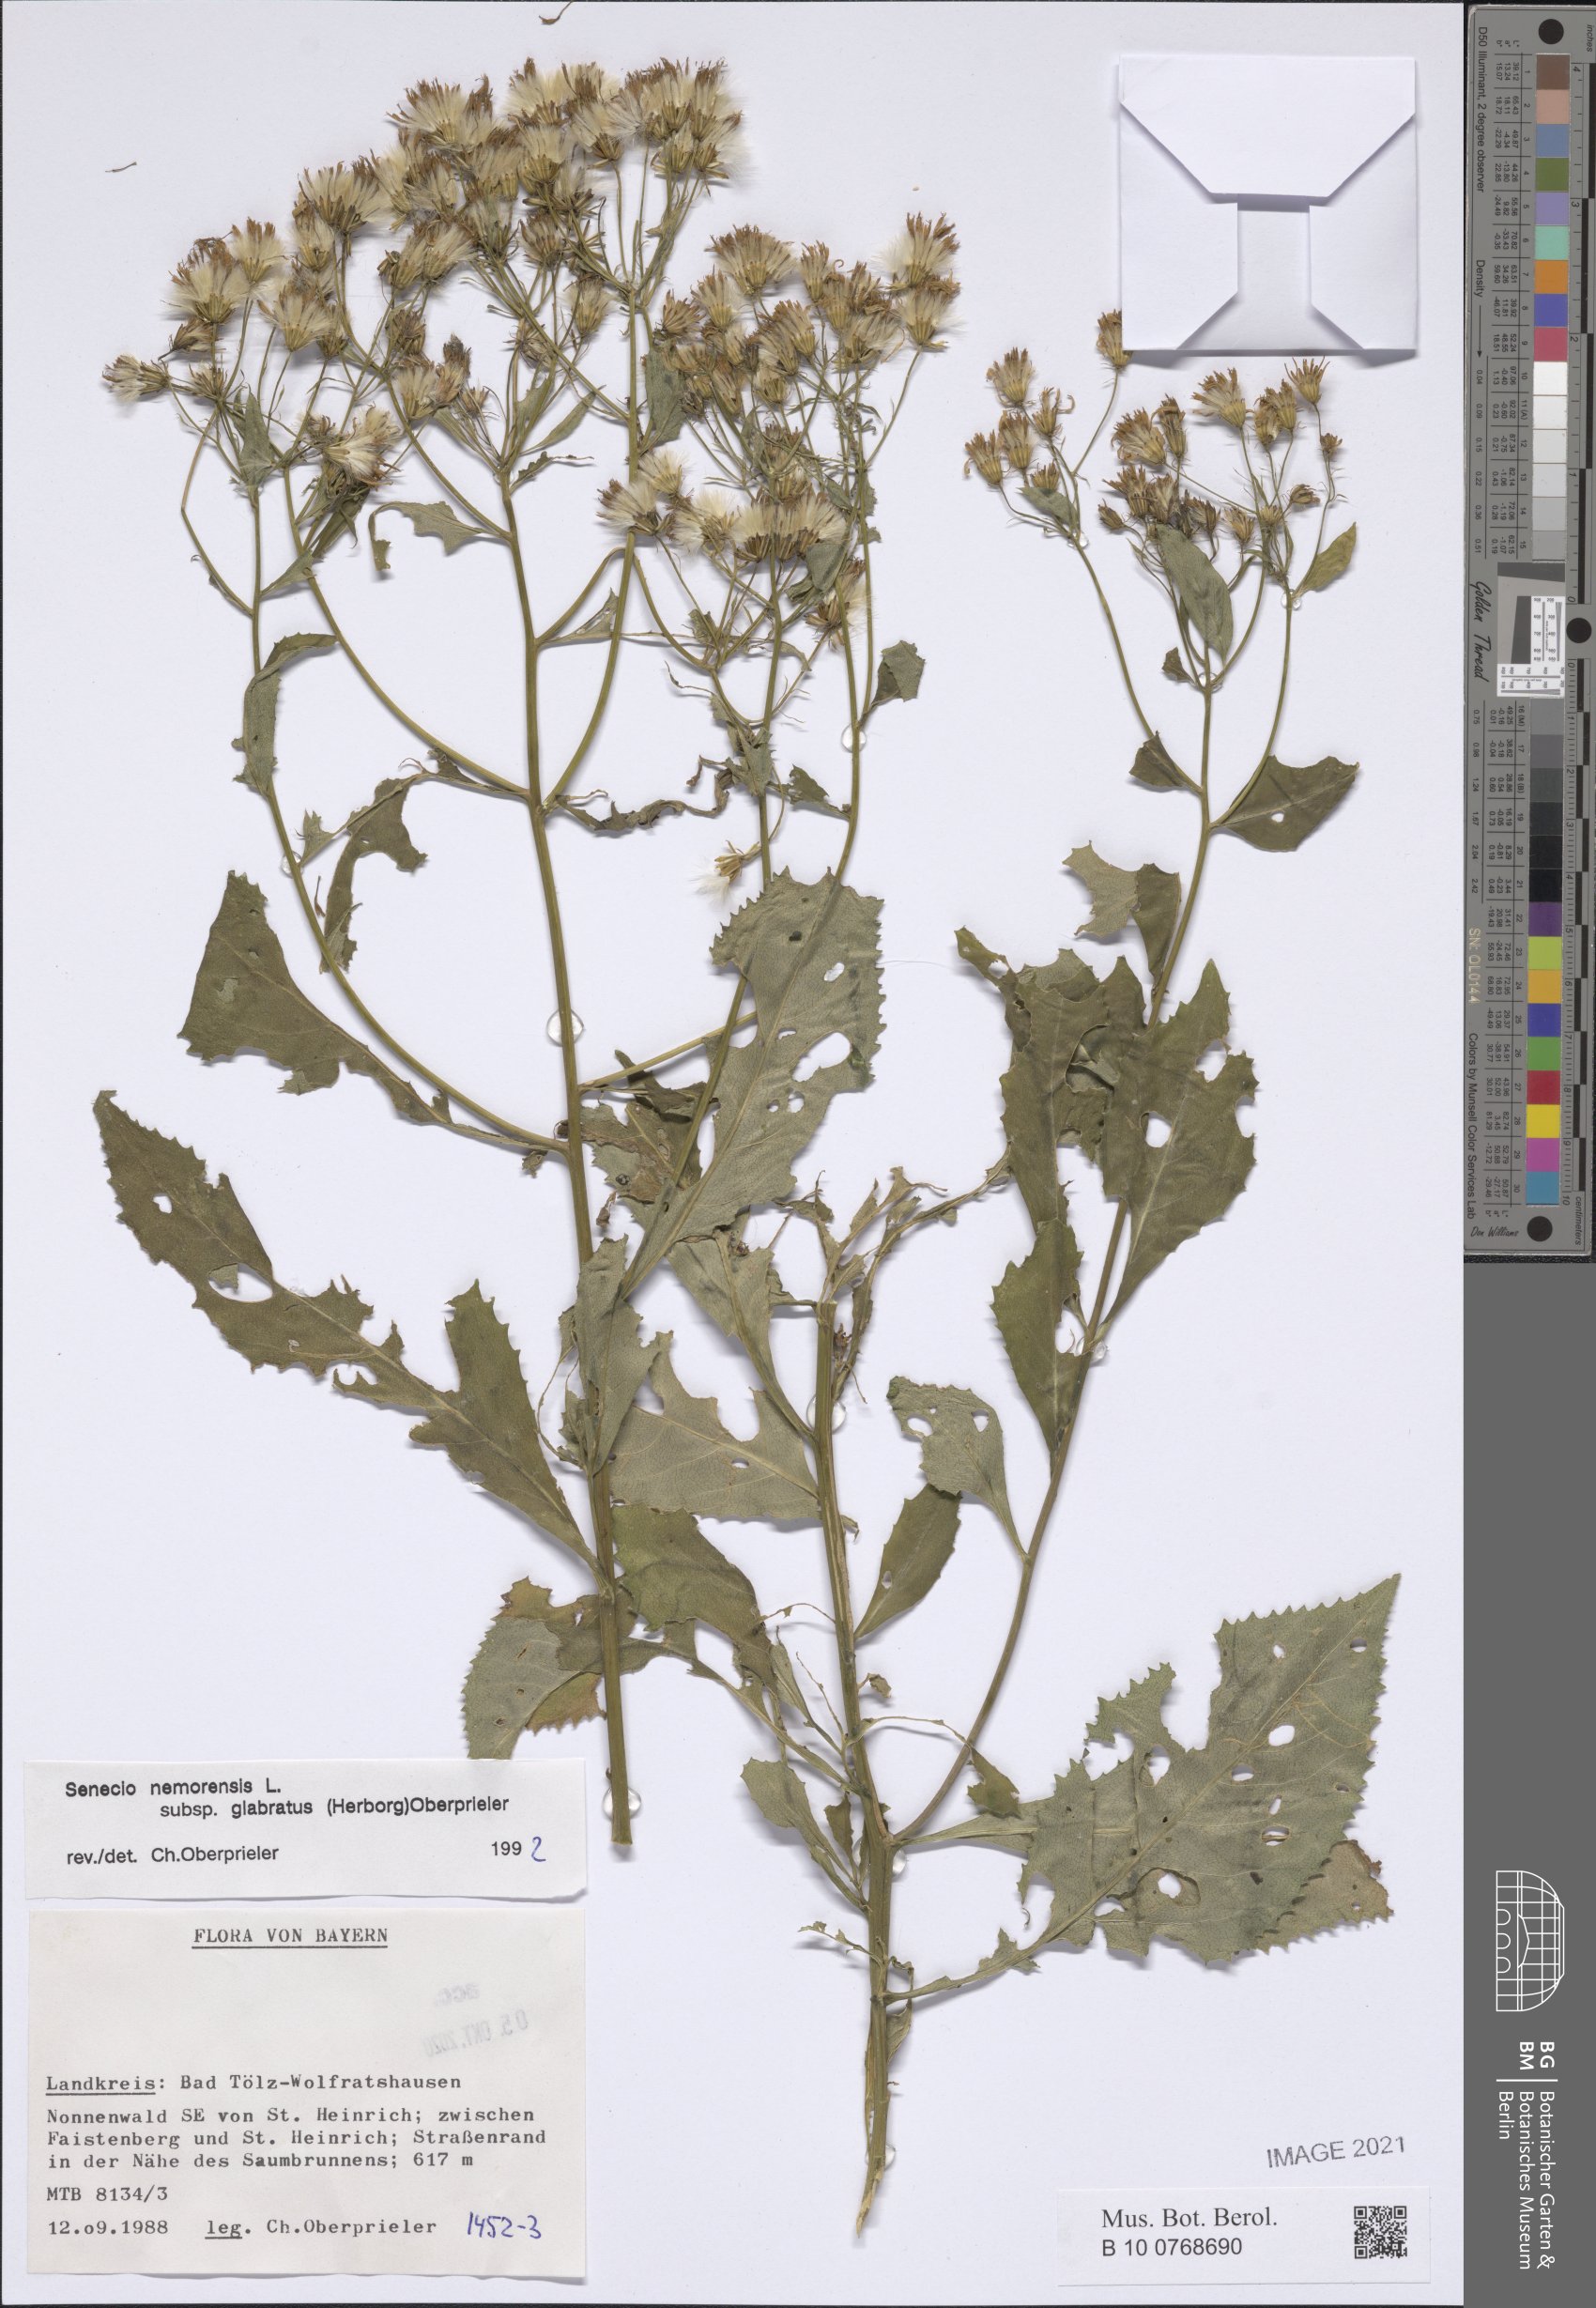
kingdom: Plantae
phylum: Tracheophyta
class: Magnoliopsida
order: Asterales
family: Asteraceae
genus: Senecio
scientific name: Senecio germanicus
